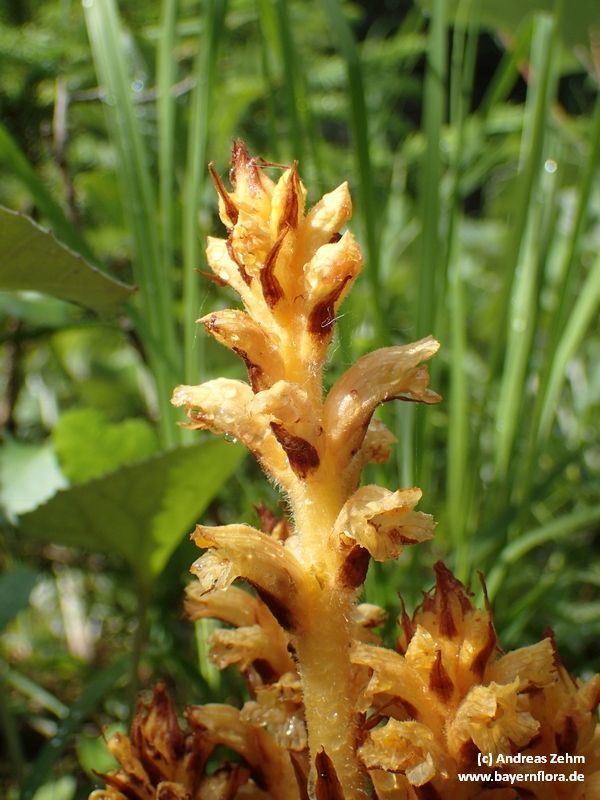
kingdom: Plantae
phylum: Tracheophyta
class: Magnoliopsida
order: Lamiales
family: Orobanchaceae
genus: Orobanche
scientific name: Orobanche flava
